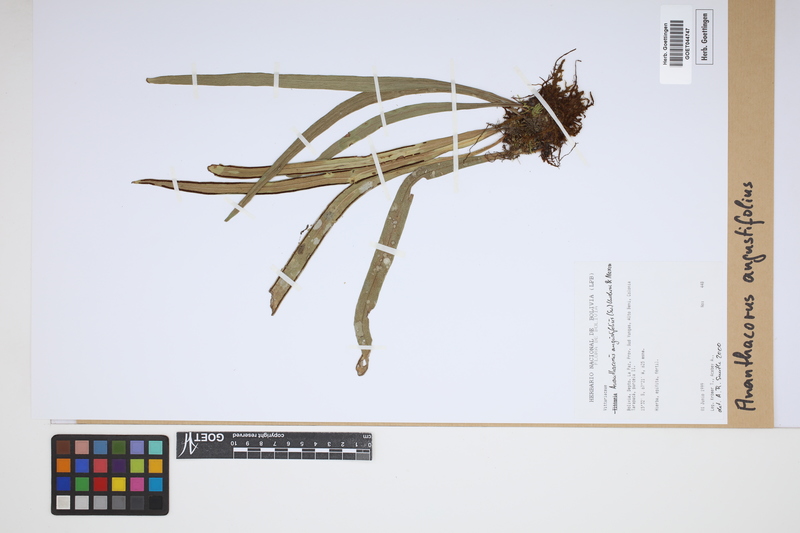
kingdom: Plantae
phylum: Tracheophyta
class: Polypodiopsida
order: Polypodiales
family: Pteridaceae
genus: Ananthacorus
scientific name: Ananthacorus angustifolius
